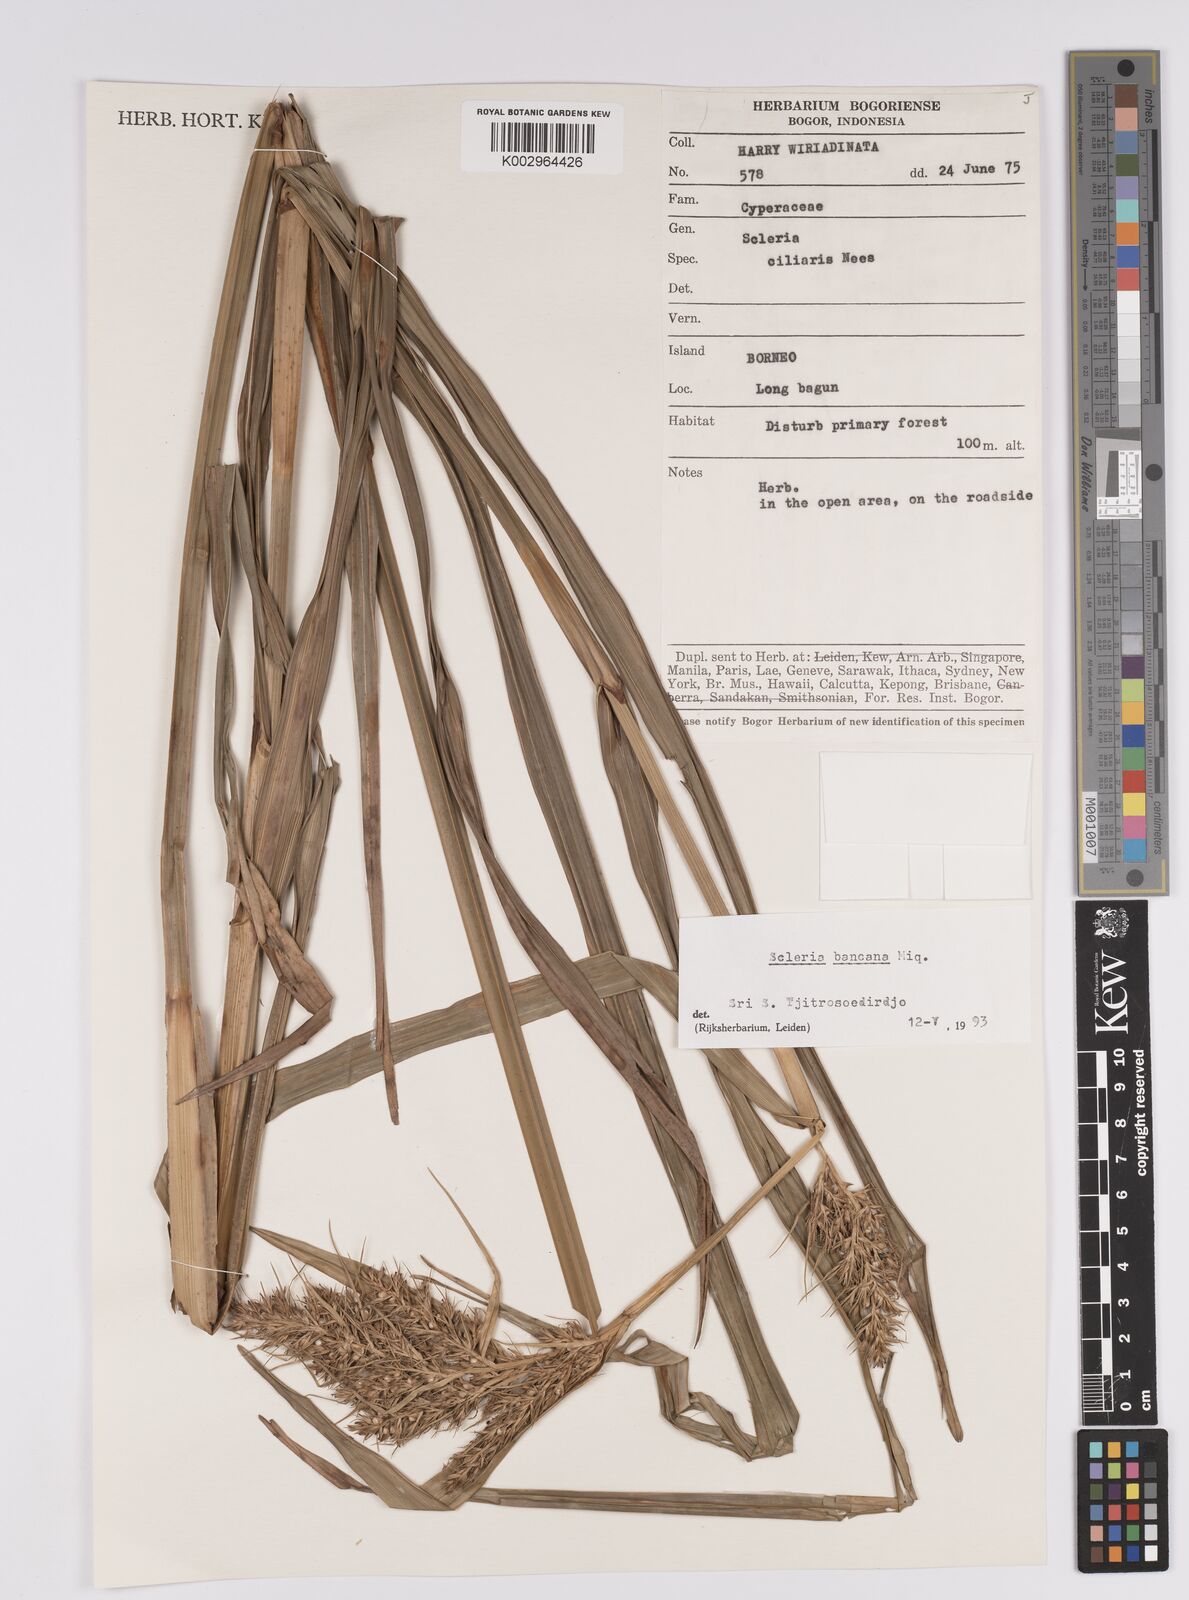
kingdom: Plantae
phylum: Tracheophyta
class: Liliopsida
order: Poales
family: Cyperaceae
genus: Scleria
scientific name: Scleria ciliaris
